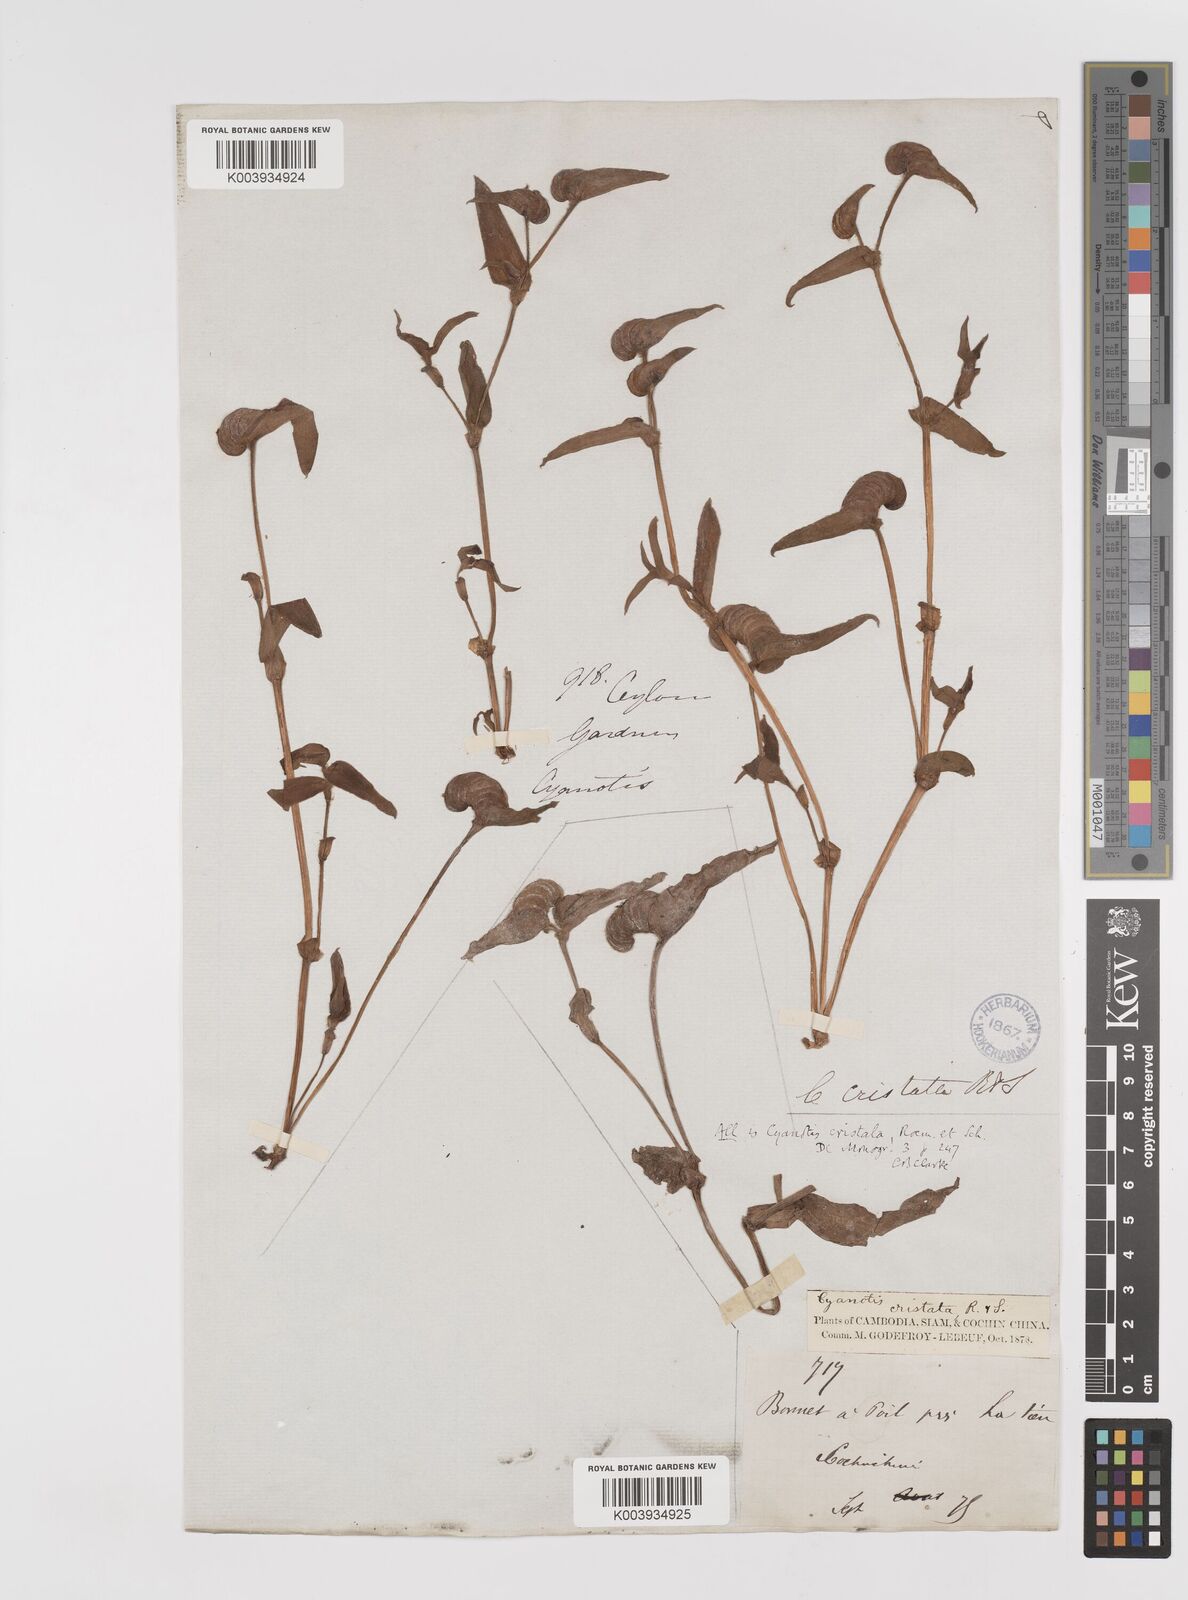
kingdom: Plantae
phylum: Tracheophyta
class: Liliopsida
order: Commelinales
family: Commelinaceae
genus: Cyanotis
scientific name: Cyanotis cristata
